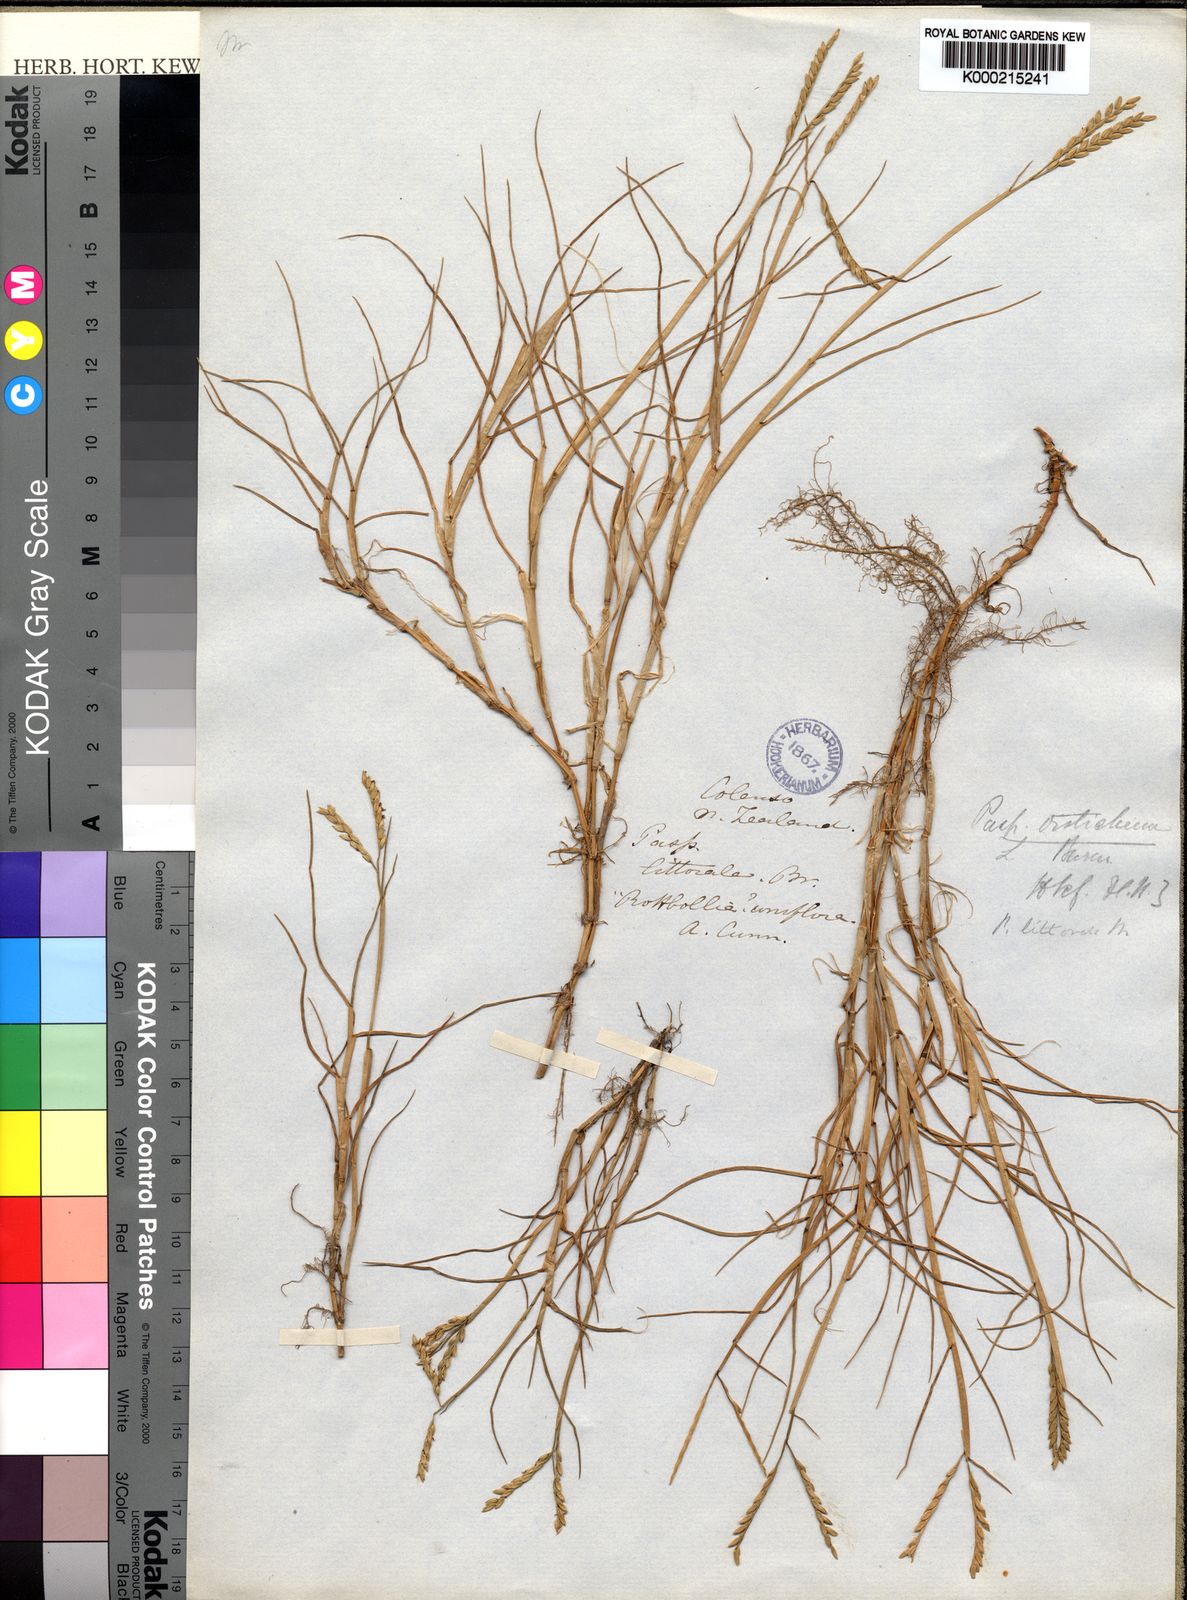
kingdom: Plantae
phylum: Tracheophyta
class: Liliopsida
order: Poales
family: Poaceae
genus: Paspalum
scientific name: Paspalum vaginatum
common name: Seashore paspalum
